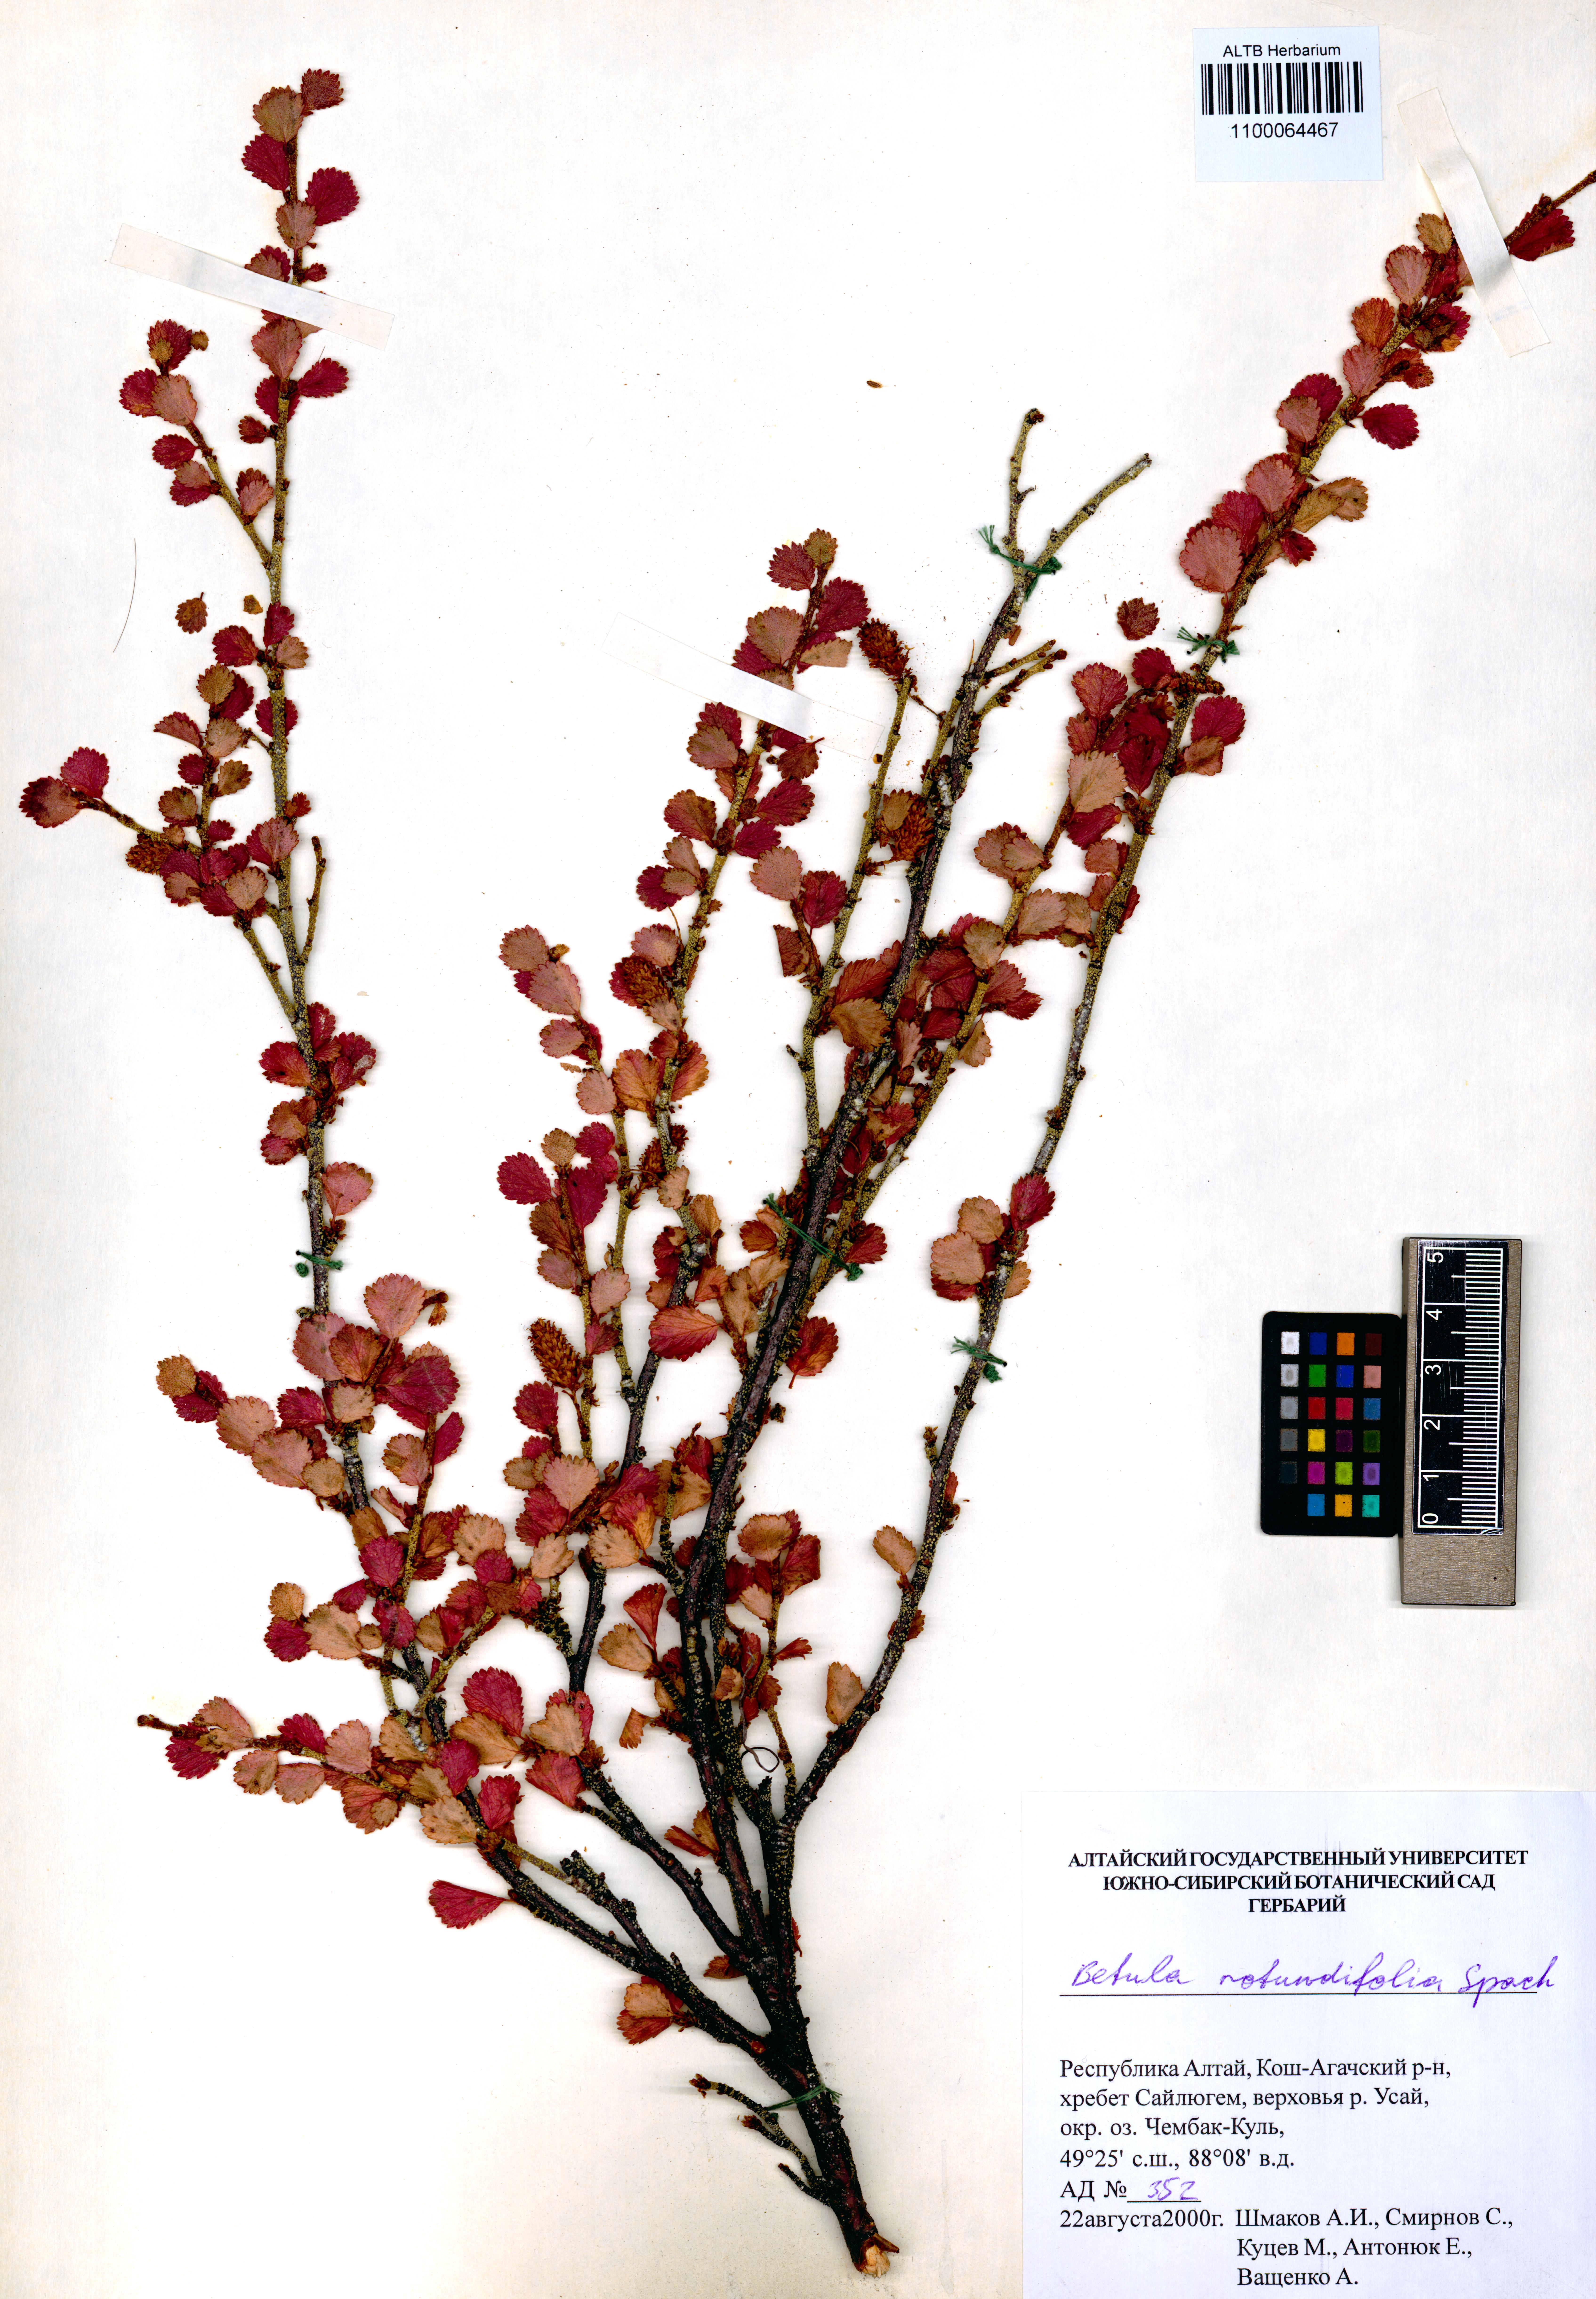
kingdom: Plantae
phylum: Tracheophyta
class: Magnoliopsida
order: Fagales
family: Betulaceae
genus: Betula
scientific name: Betula glandulosa
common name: Dwarf birch
